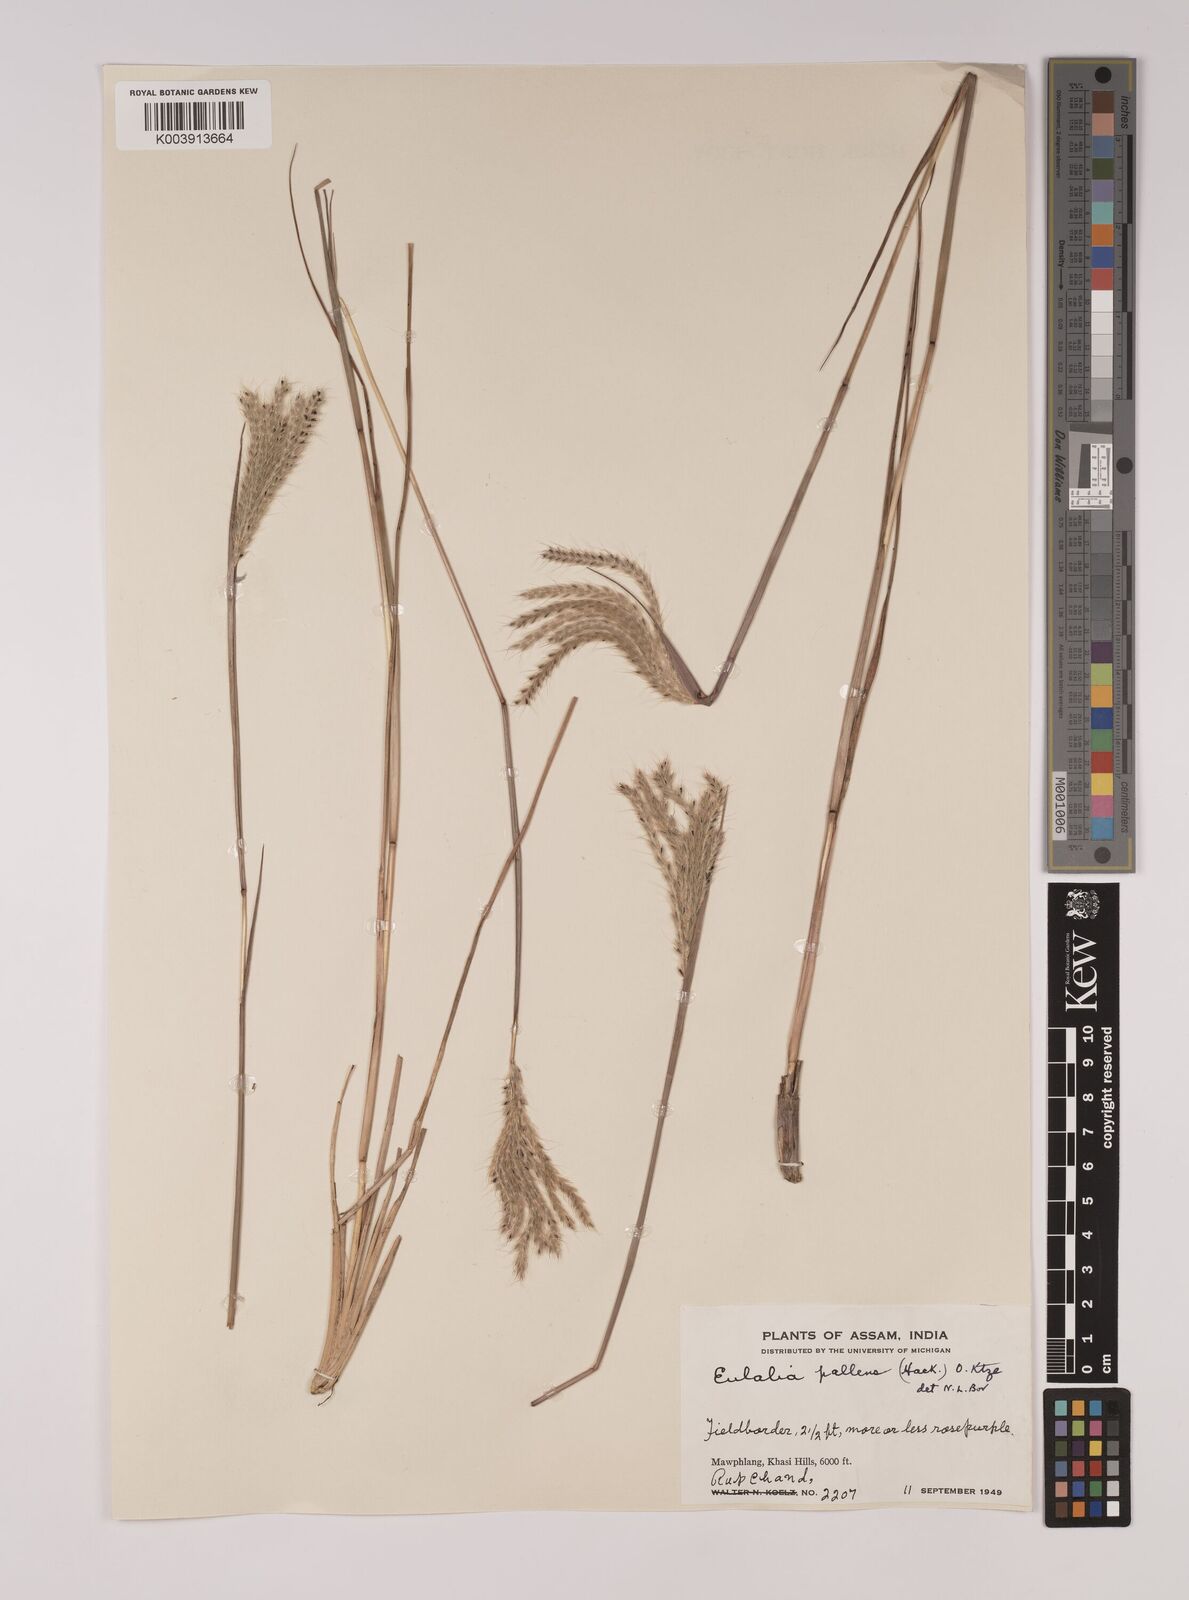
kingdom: Plantae
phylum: Tracheophyta
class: Liliopsida
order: Poales
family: Poaceae
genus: Eulalia
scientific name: Eulalia pallens
